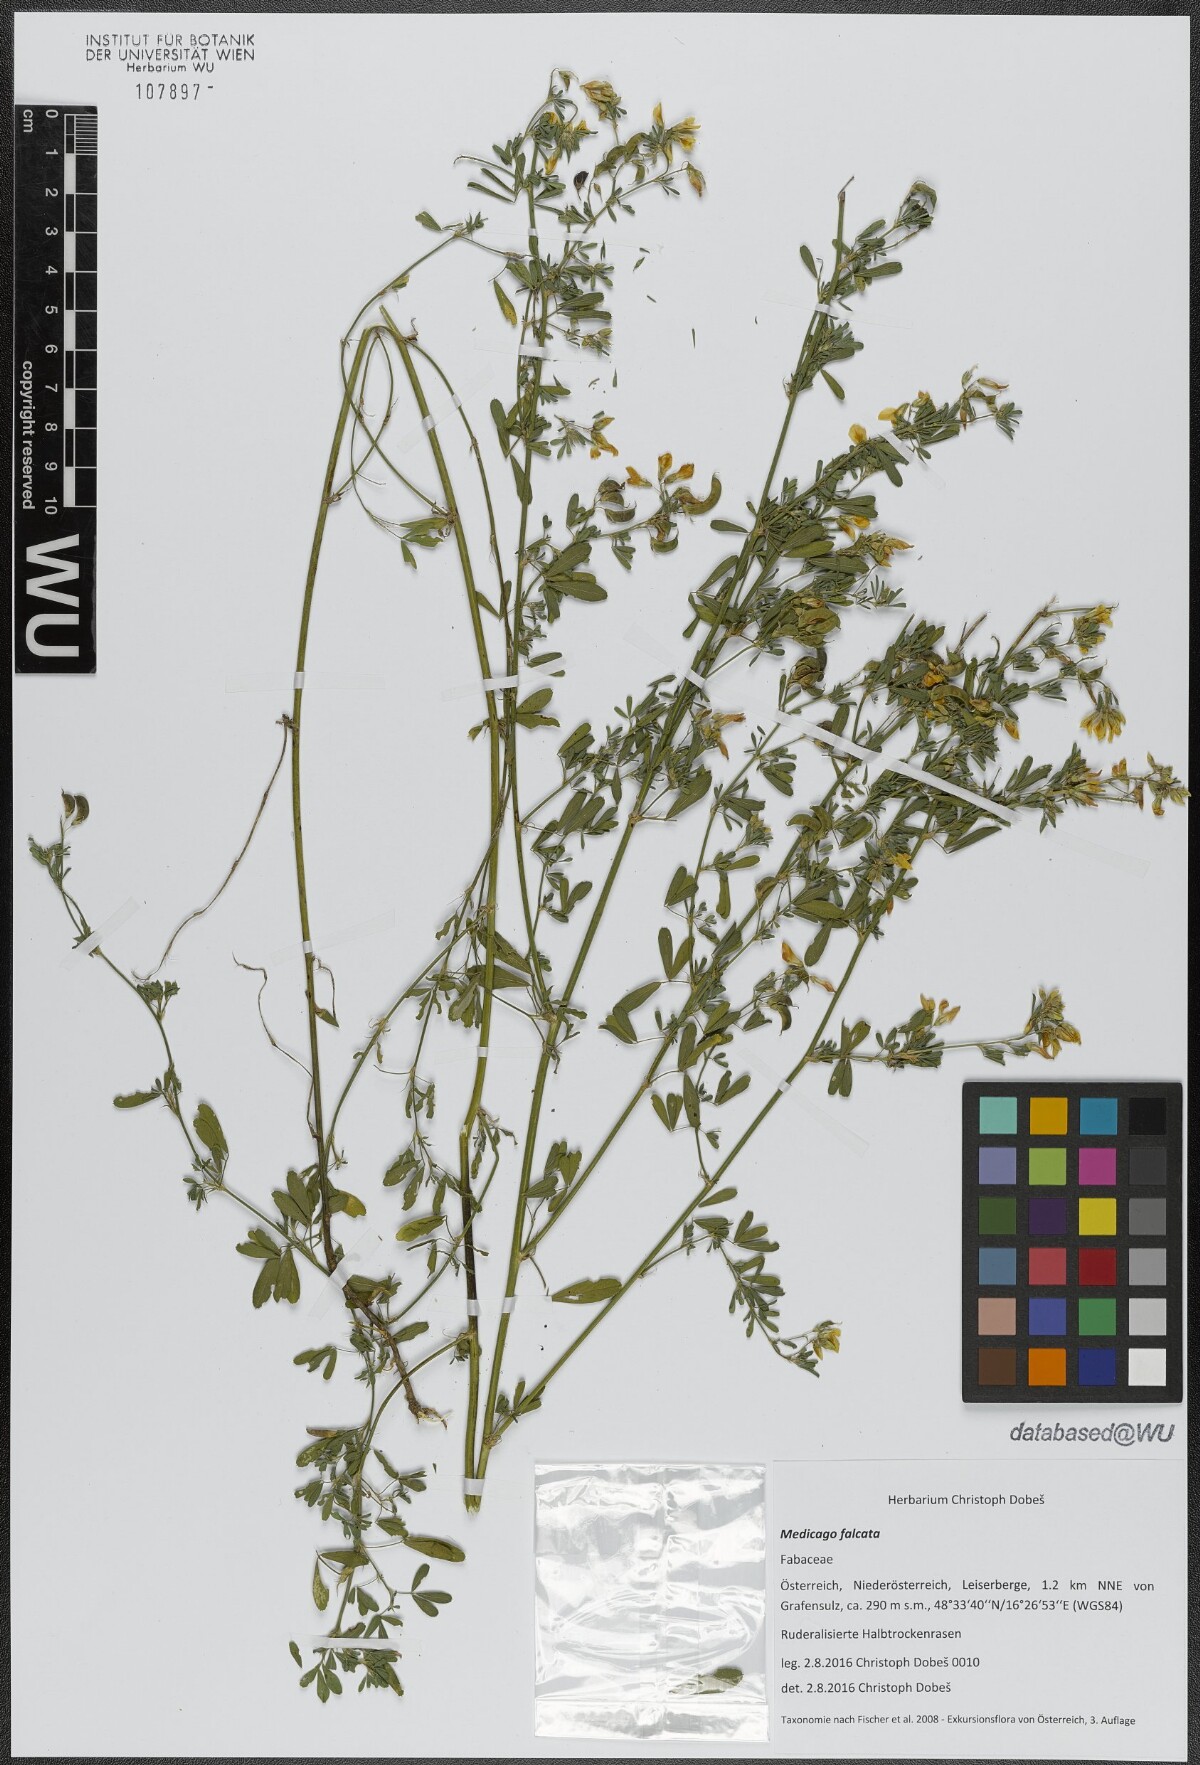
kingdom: Plantae
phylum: Tracheophyta
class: Magnoliopsida
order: Fabales
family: Fabaceae
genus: Medicago
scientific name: Medicago falcata
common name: Sickle medick
